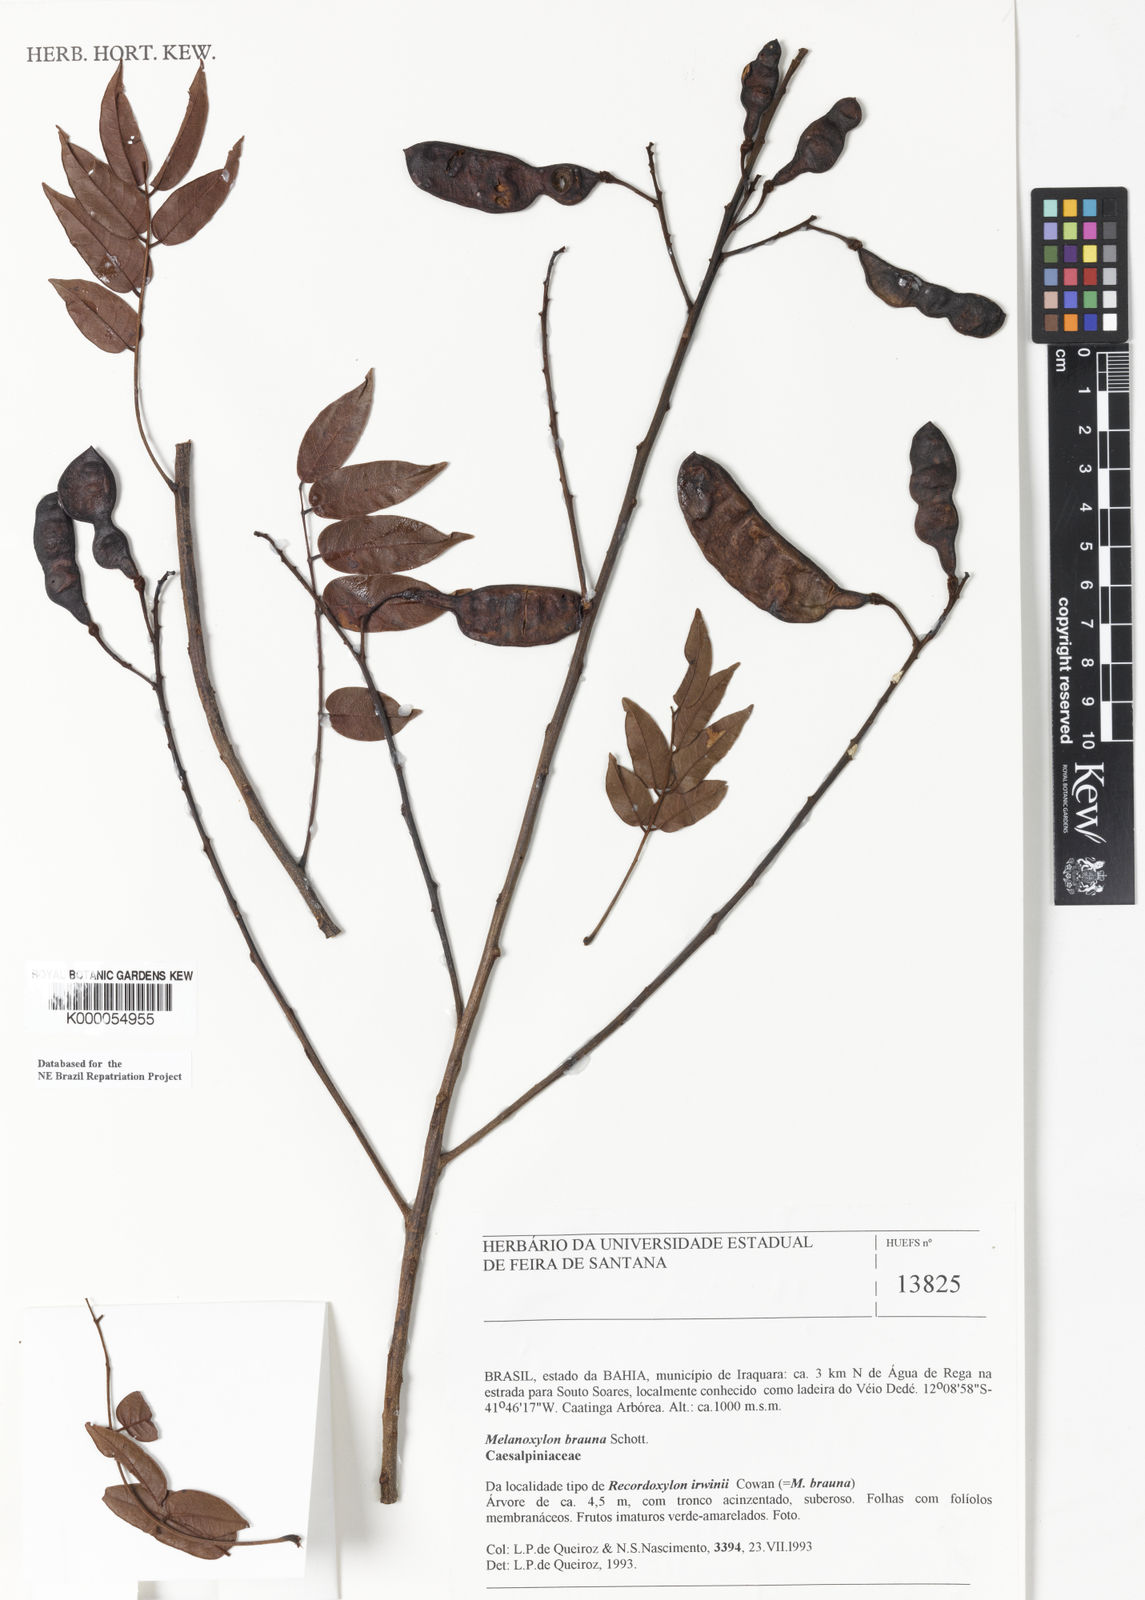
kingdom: Plantae
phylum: Tracheophyta
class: Magnoliopsida
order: Fabales
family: Fabaceae
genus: Melanoxylum
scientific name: Melanoxylum brauna
